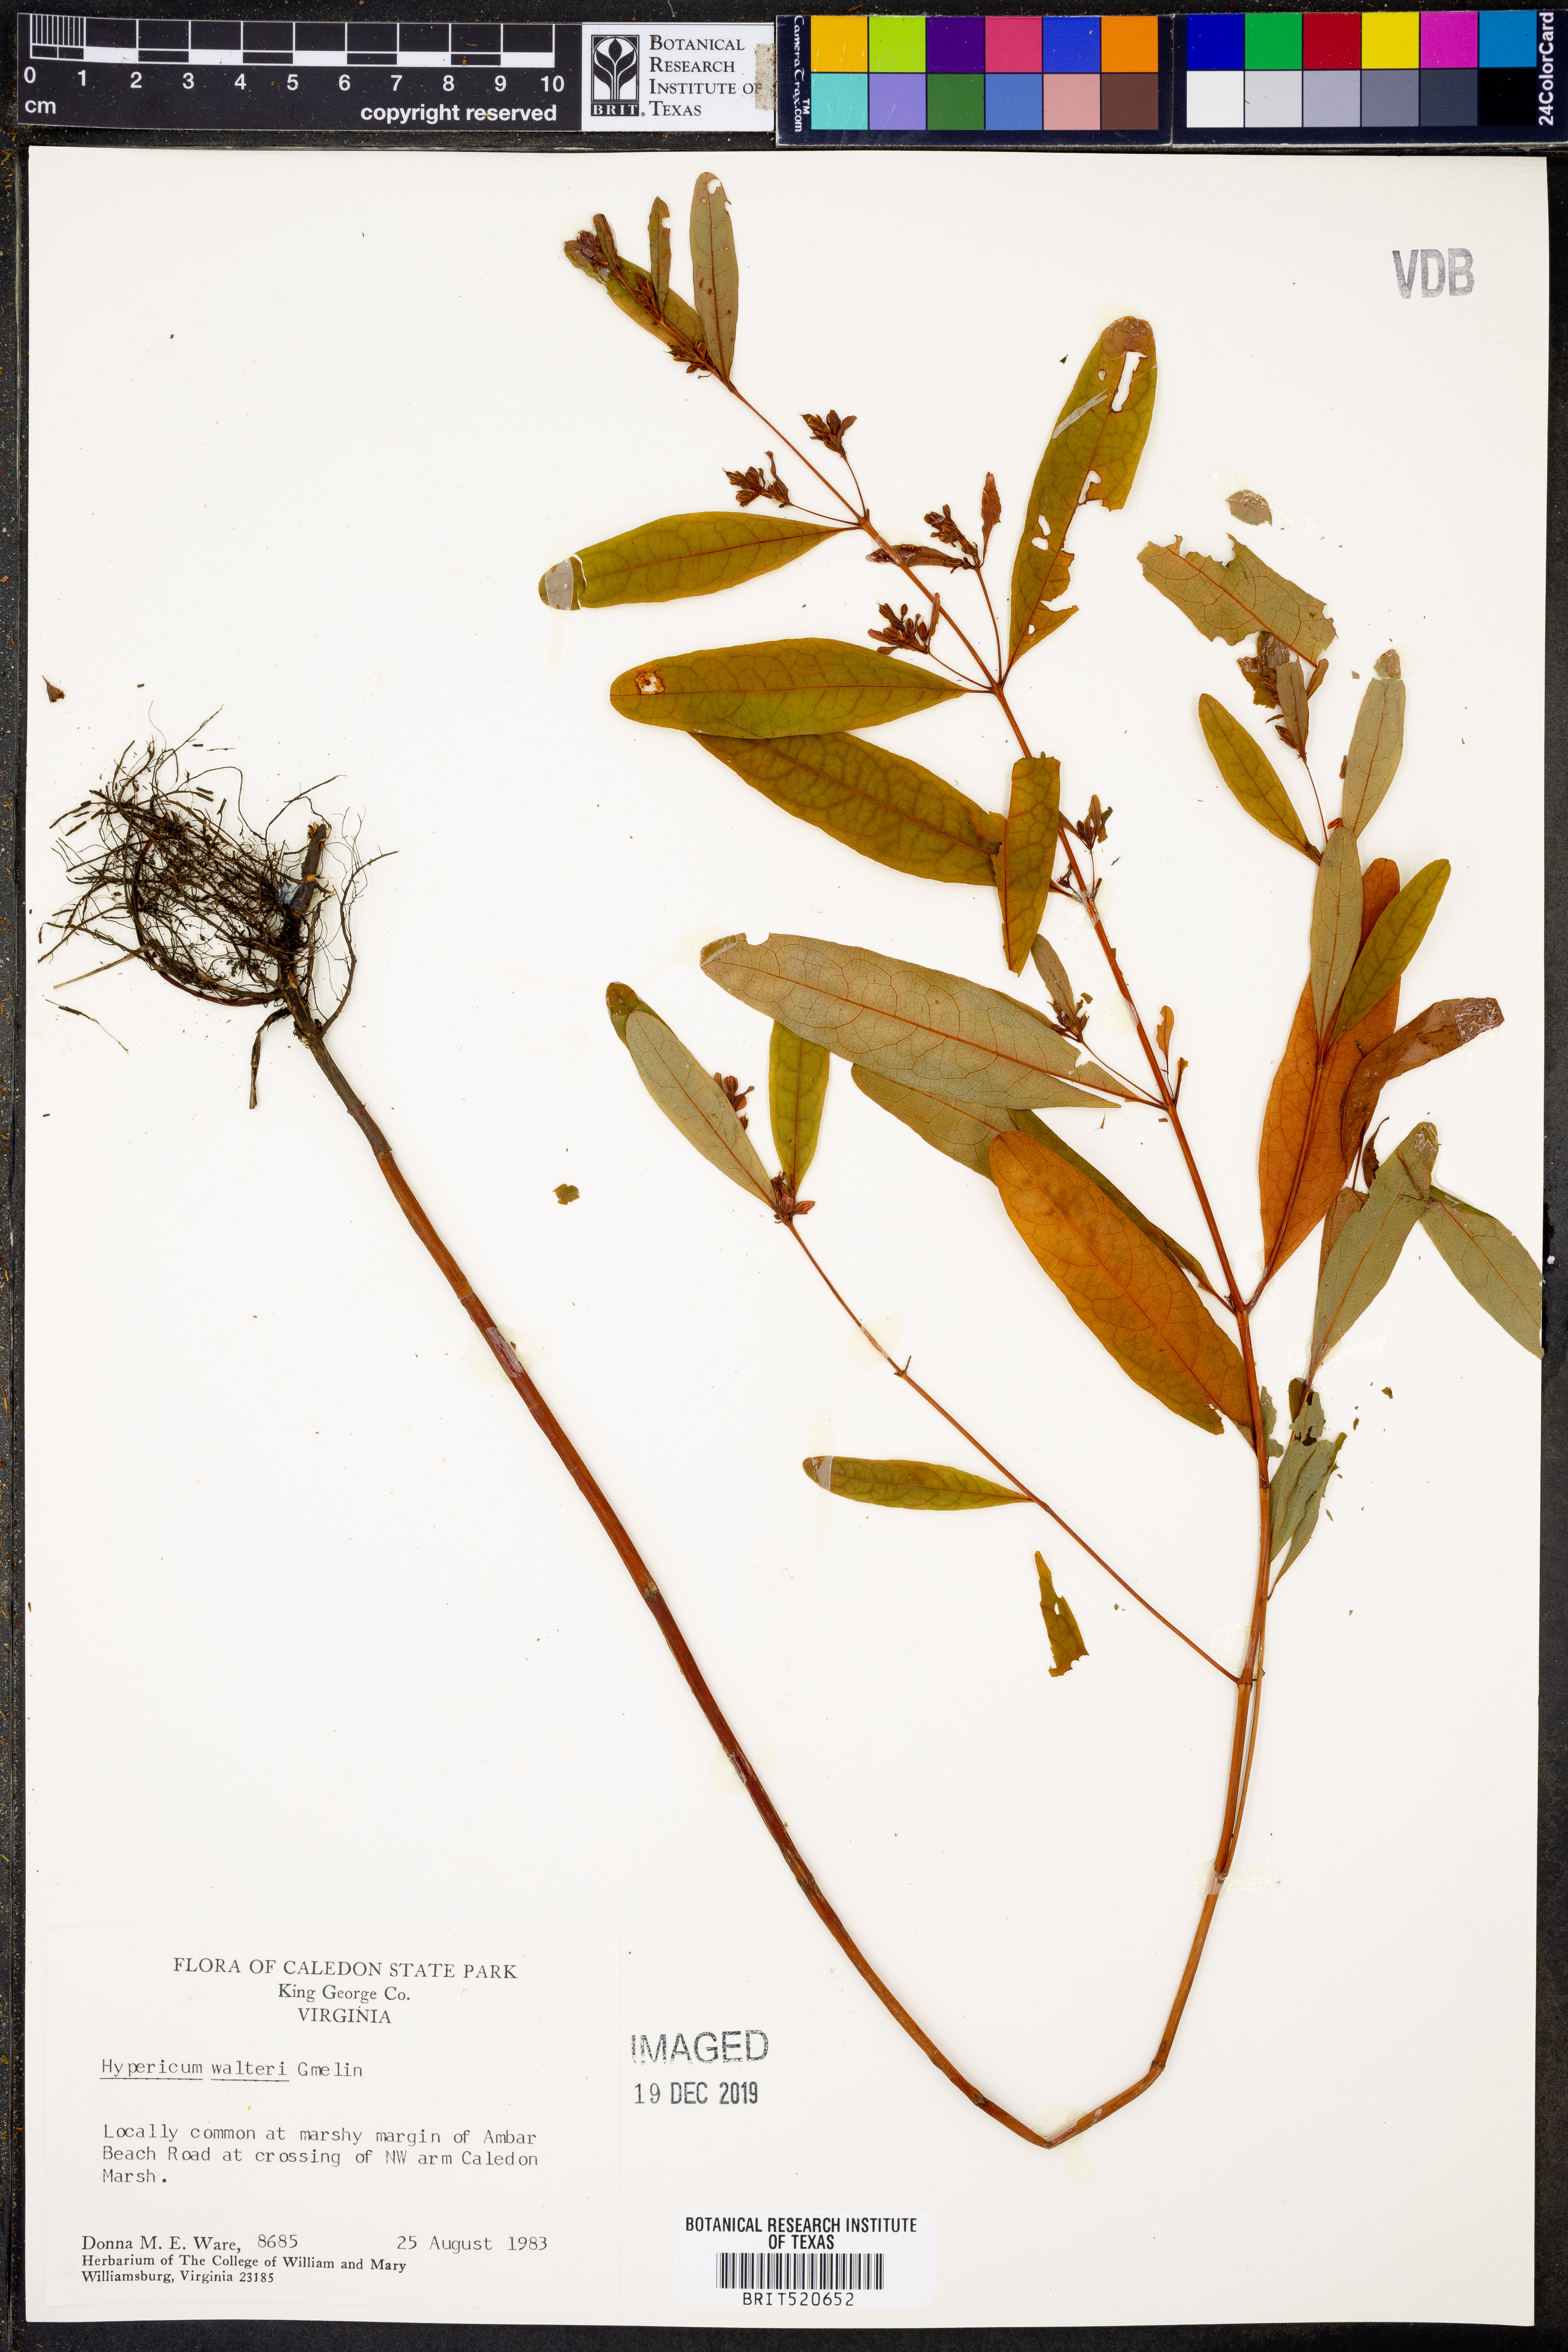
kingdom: Plantae
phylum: Tracheophyta
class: Magnoliopsida
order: Malpighiales
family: Hypericaceae
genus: Triadenum
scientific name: Triadenum walteri
